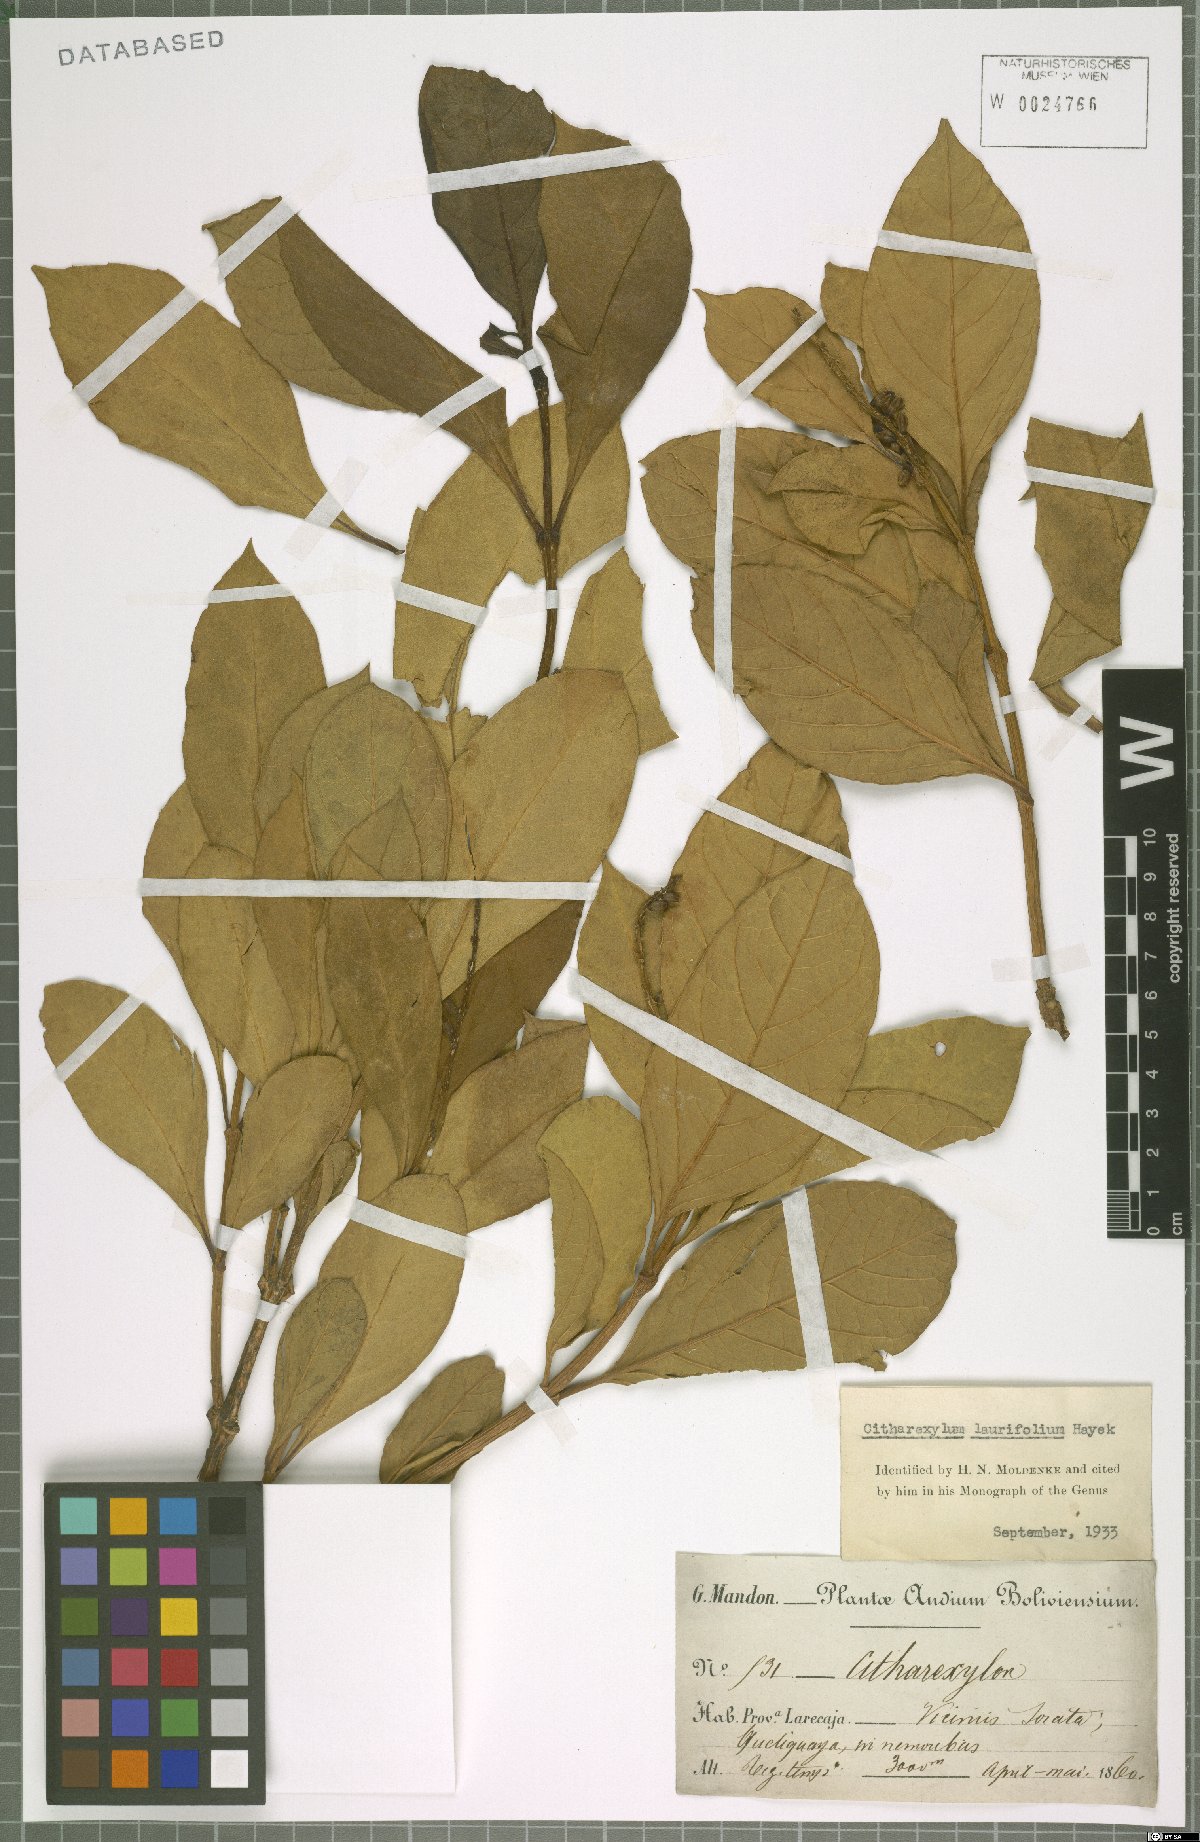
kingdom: Plantae
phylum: Tracheophyta
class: Magnoliopsida
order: Lamiales
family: Verbenaceae
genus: Citharexylum
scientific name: Citharexylum laurifolium
